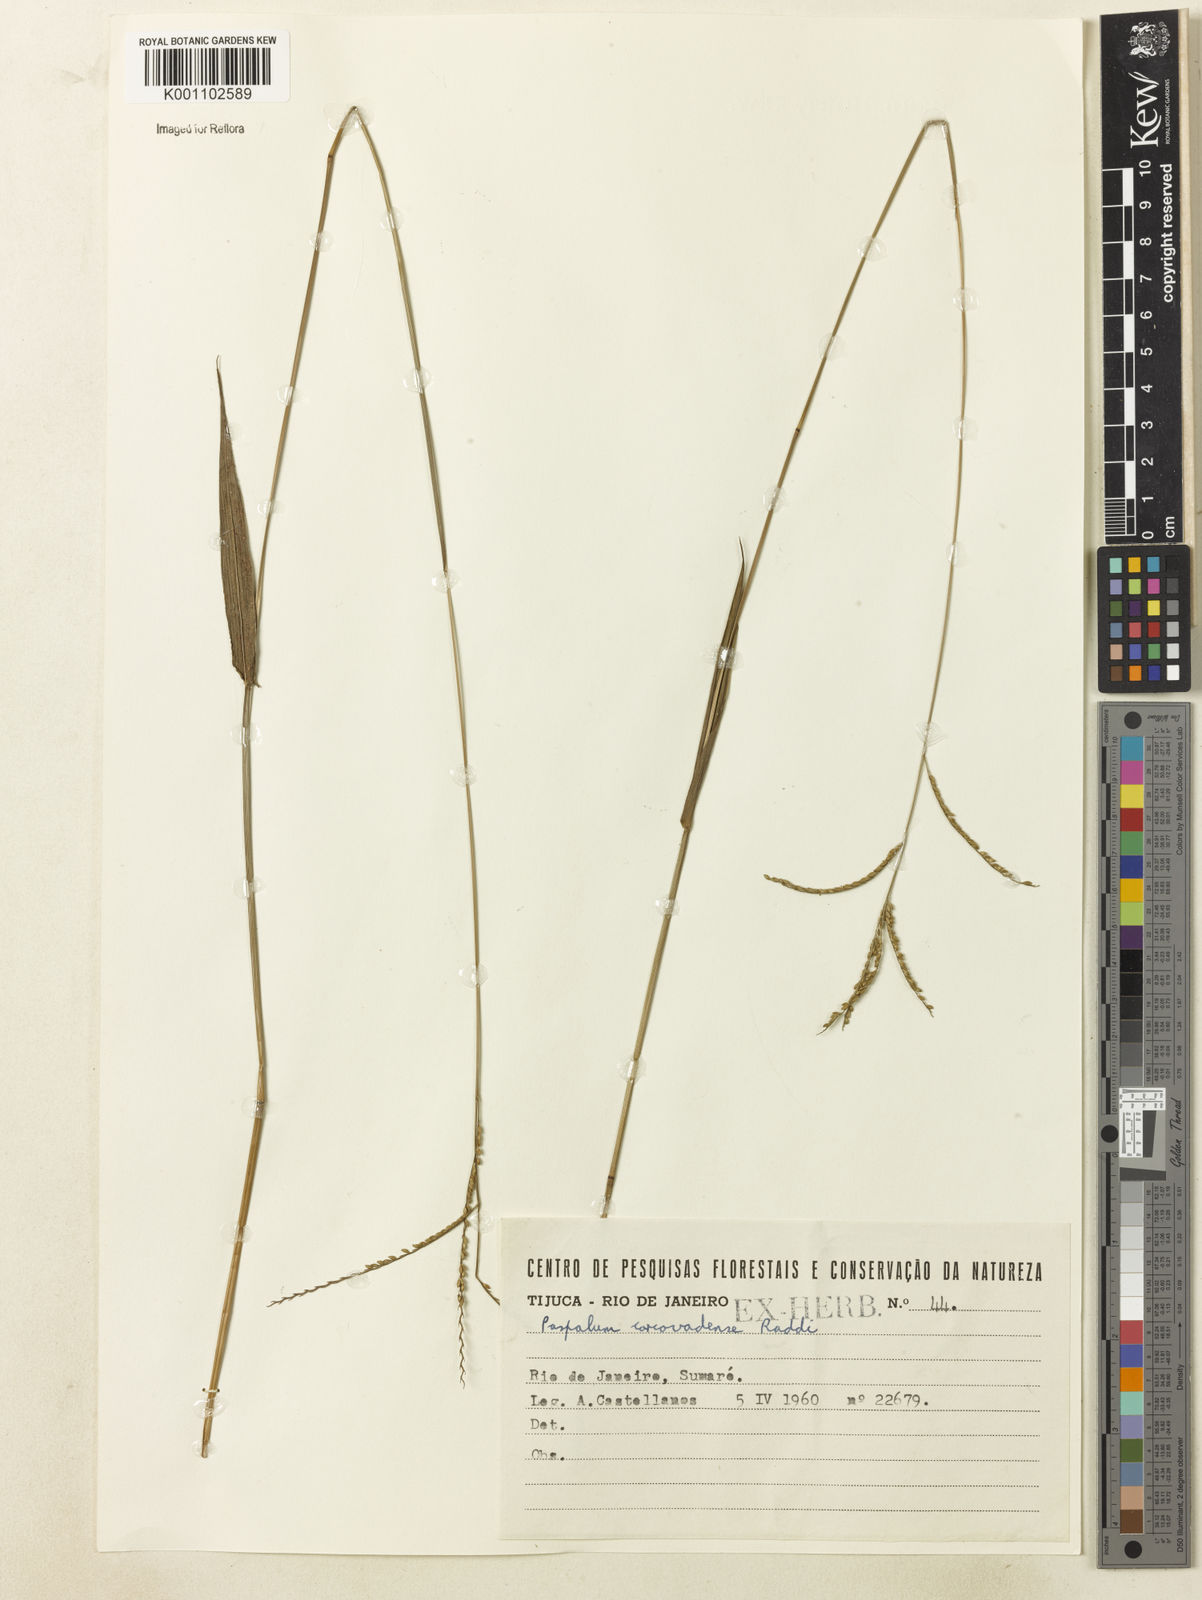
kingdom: Plantae
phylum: Tracheophyta
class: Liliopsida
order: Poales
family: Poaceae
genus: Paspalum
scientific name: Paspalum corcovadense
